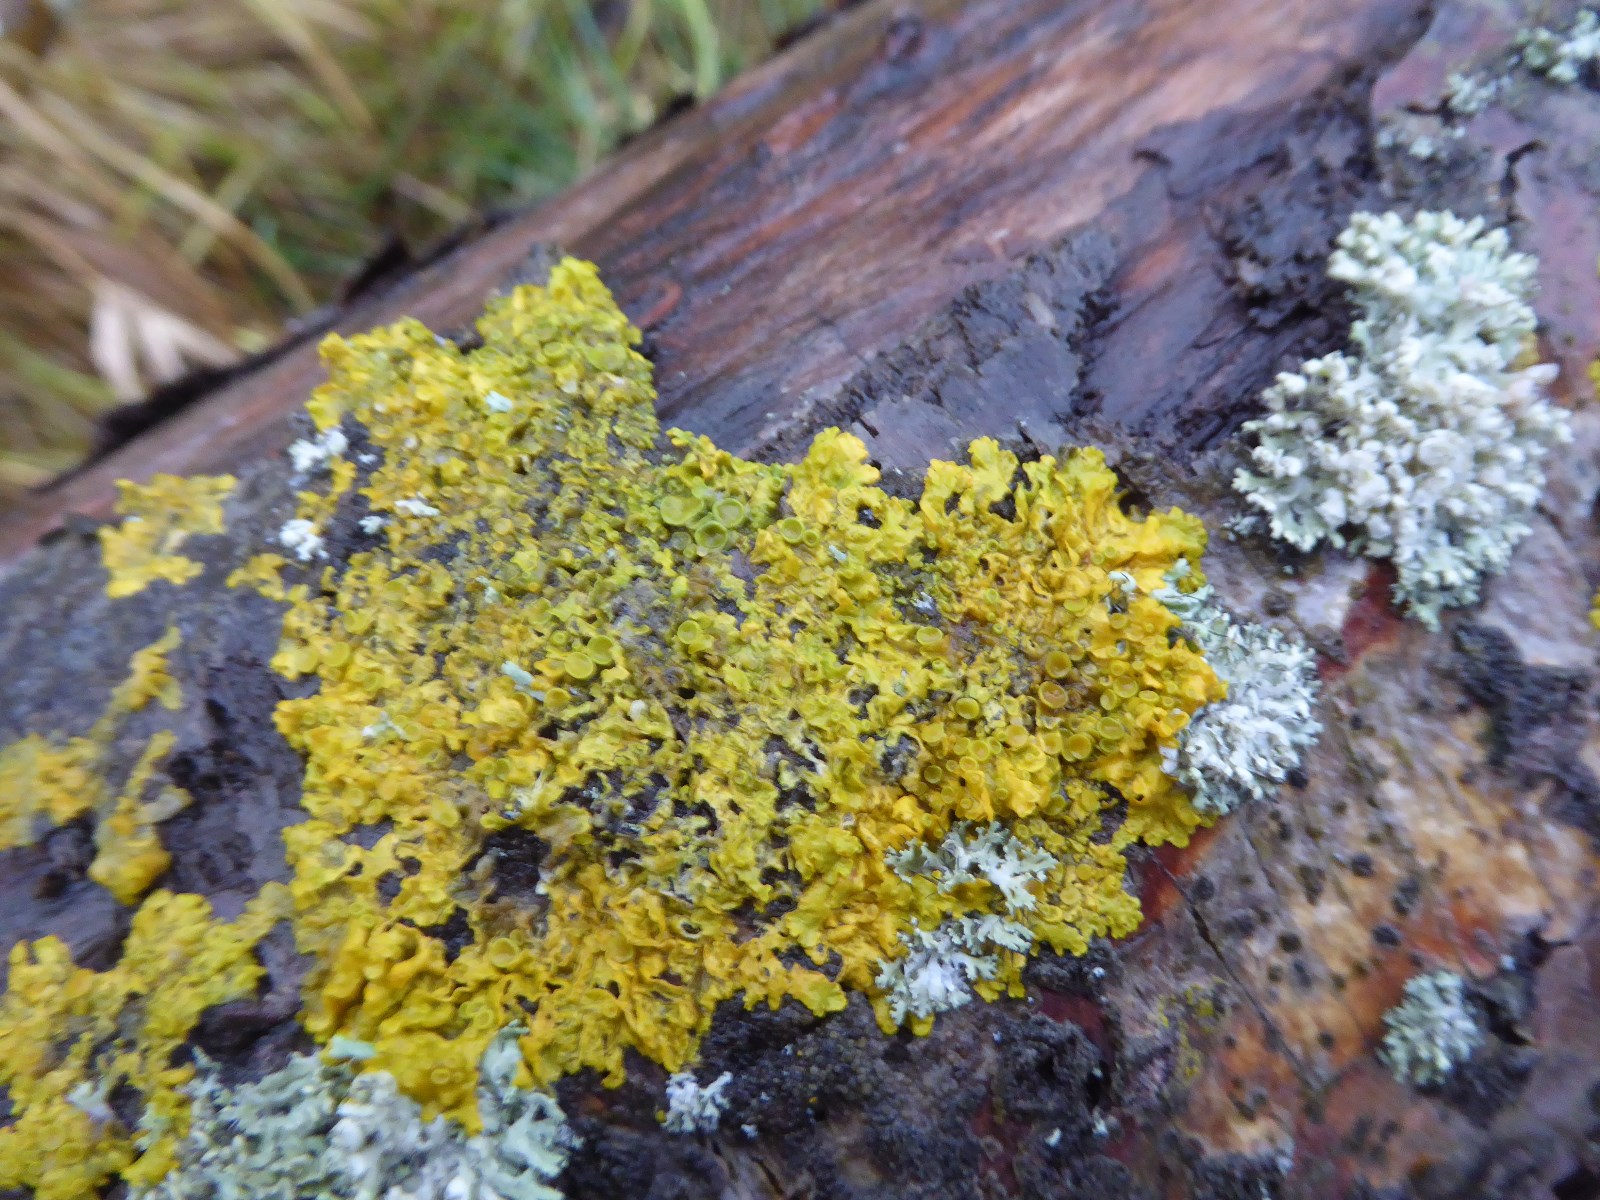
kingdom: Fungi
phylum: Ascomycota
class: Lecanoromycetes
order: Teloschistales
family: Teloschistaceae
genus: Xanthoria
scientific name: Xanthoria parietina
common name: almindelig væggelav
